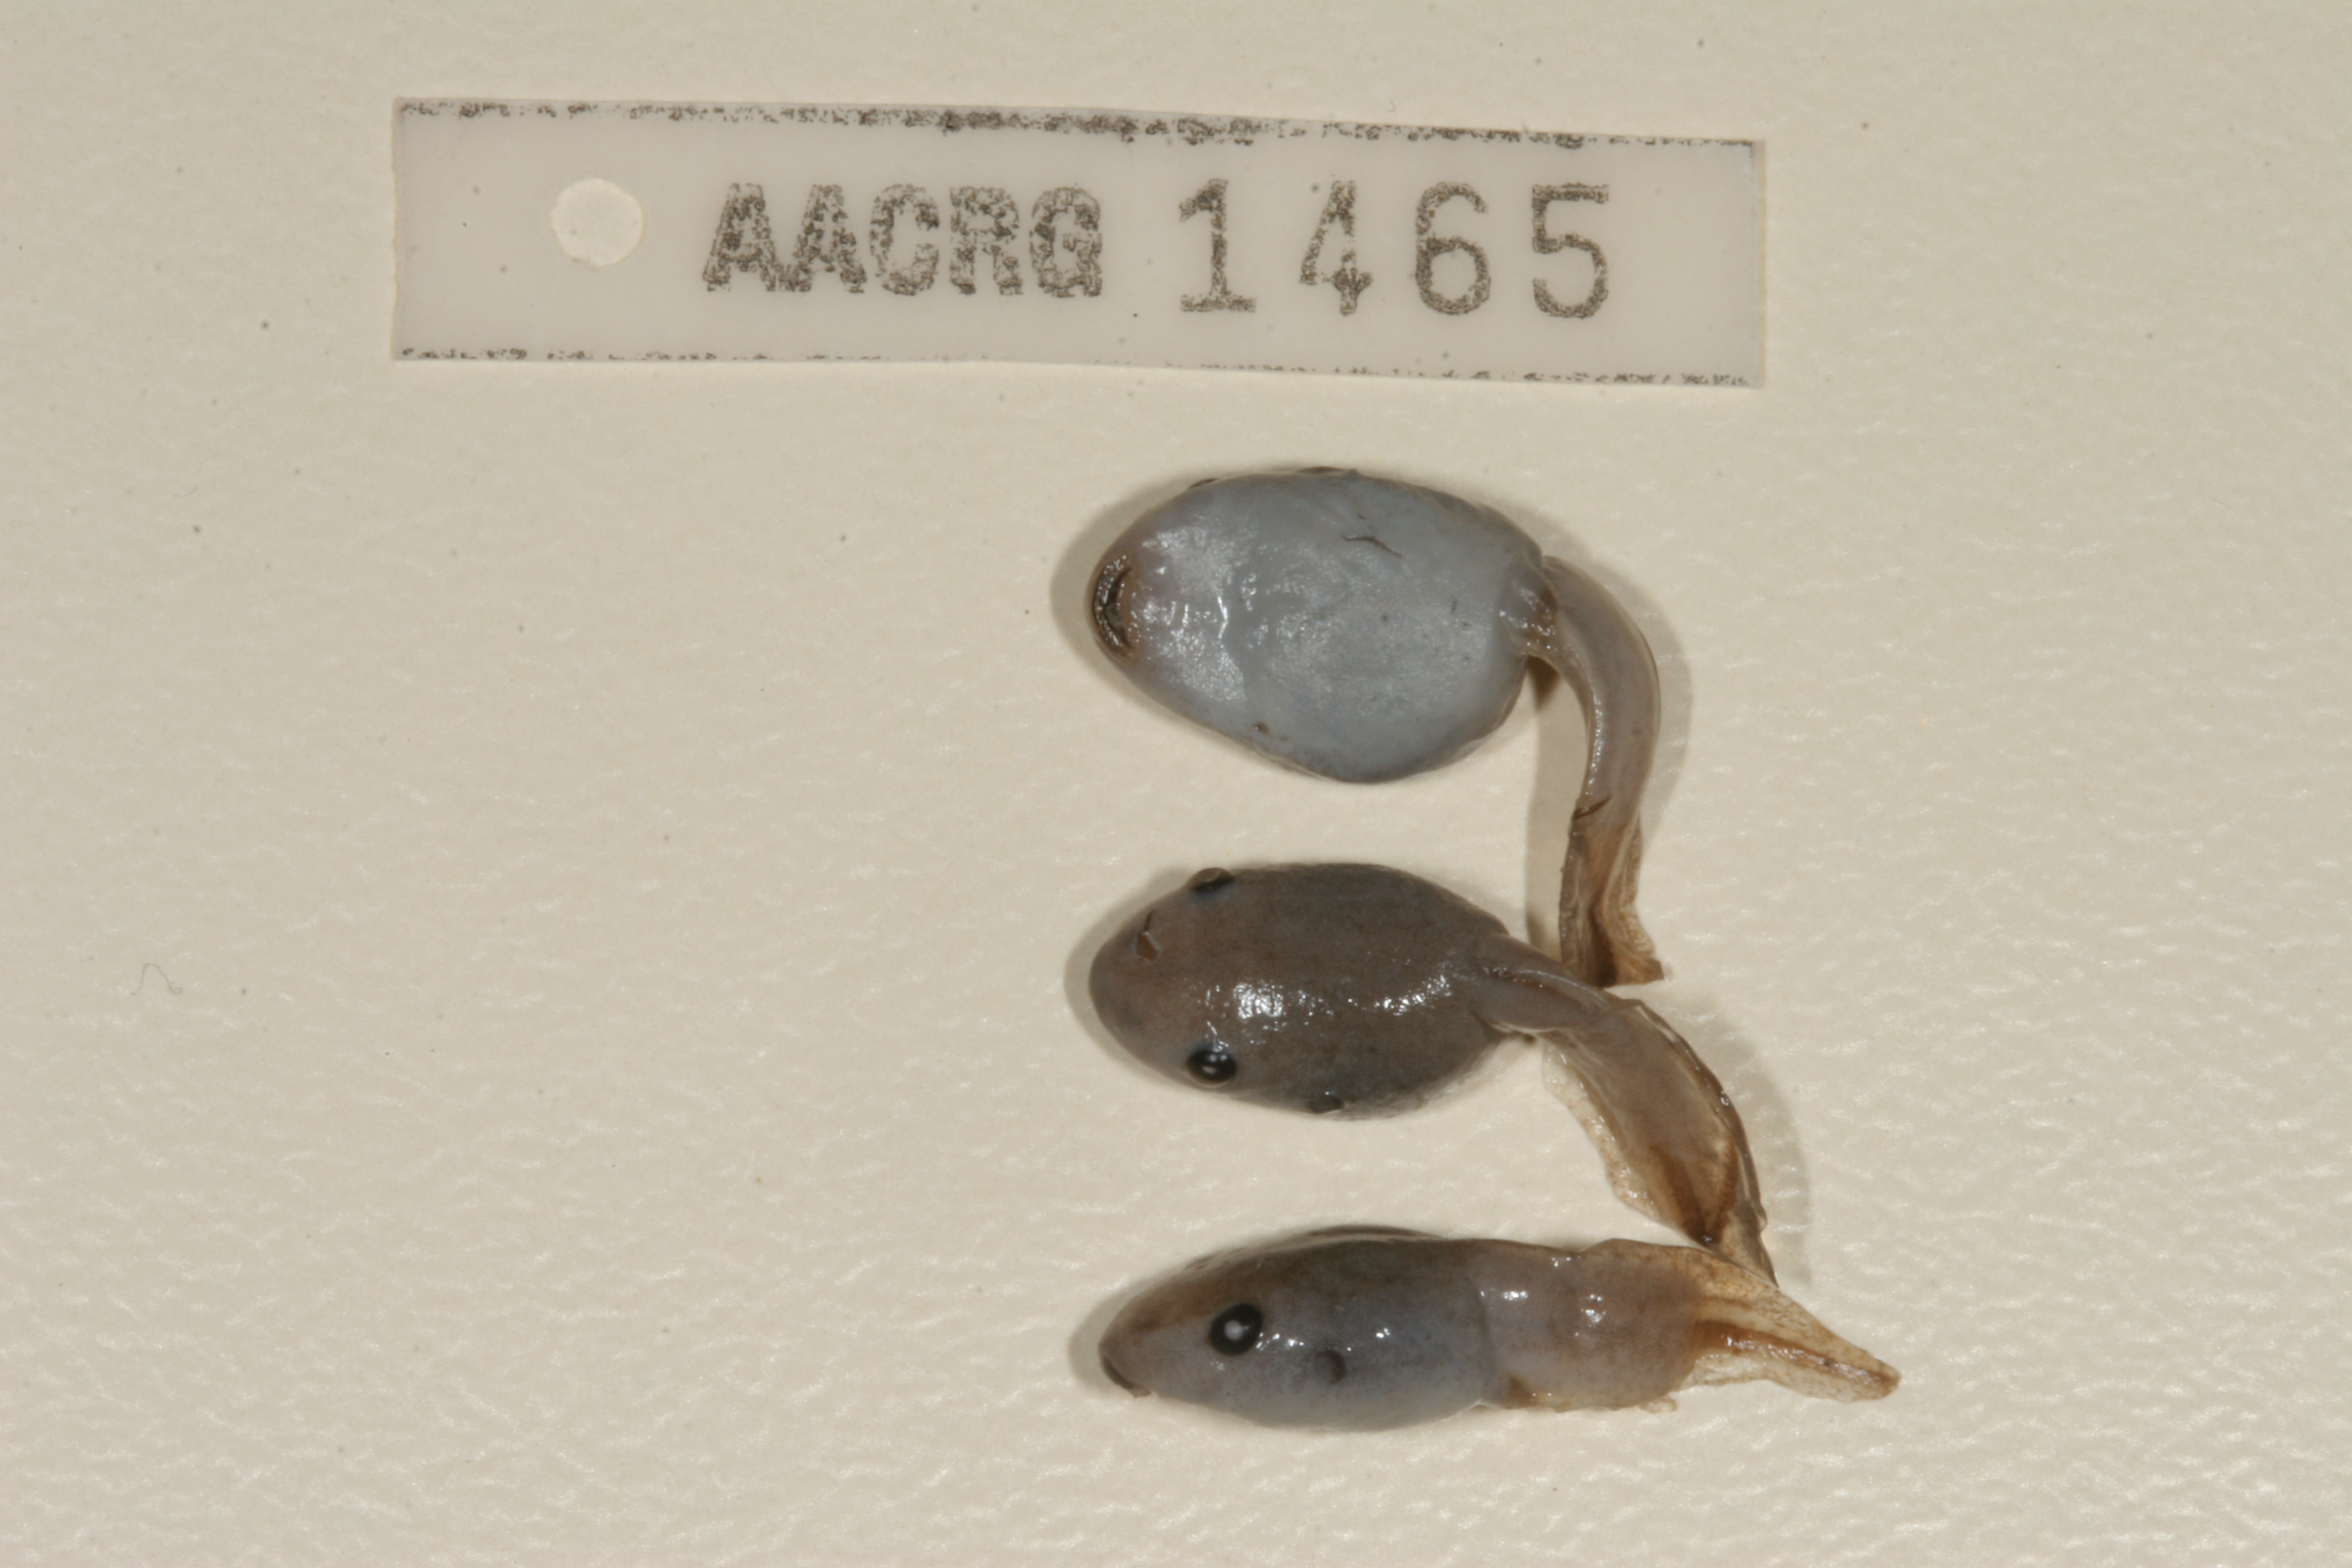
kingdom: Animalia
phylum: Chordata
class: Amphibia
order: Anura
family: Hemisotidae
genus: Hemisus
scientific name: Hemisus marmoratus
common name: Mottled shovel-nosed frog
